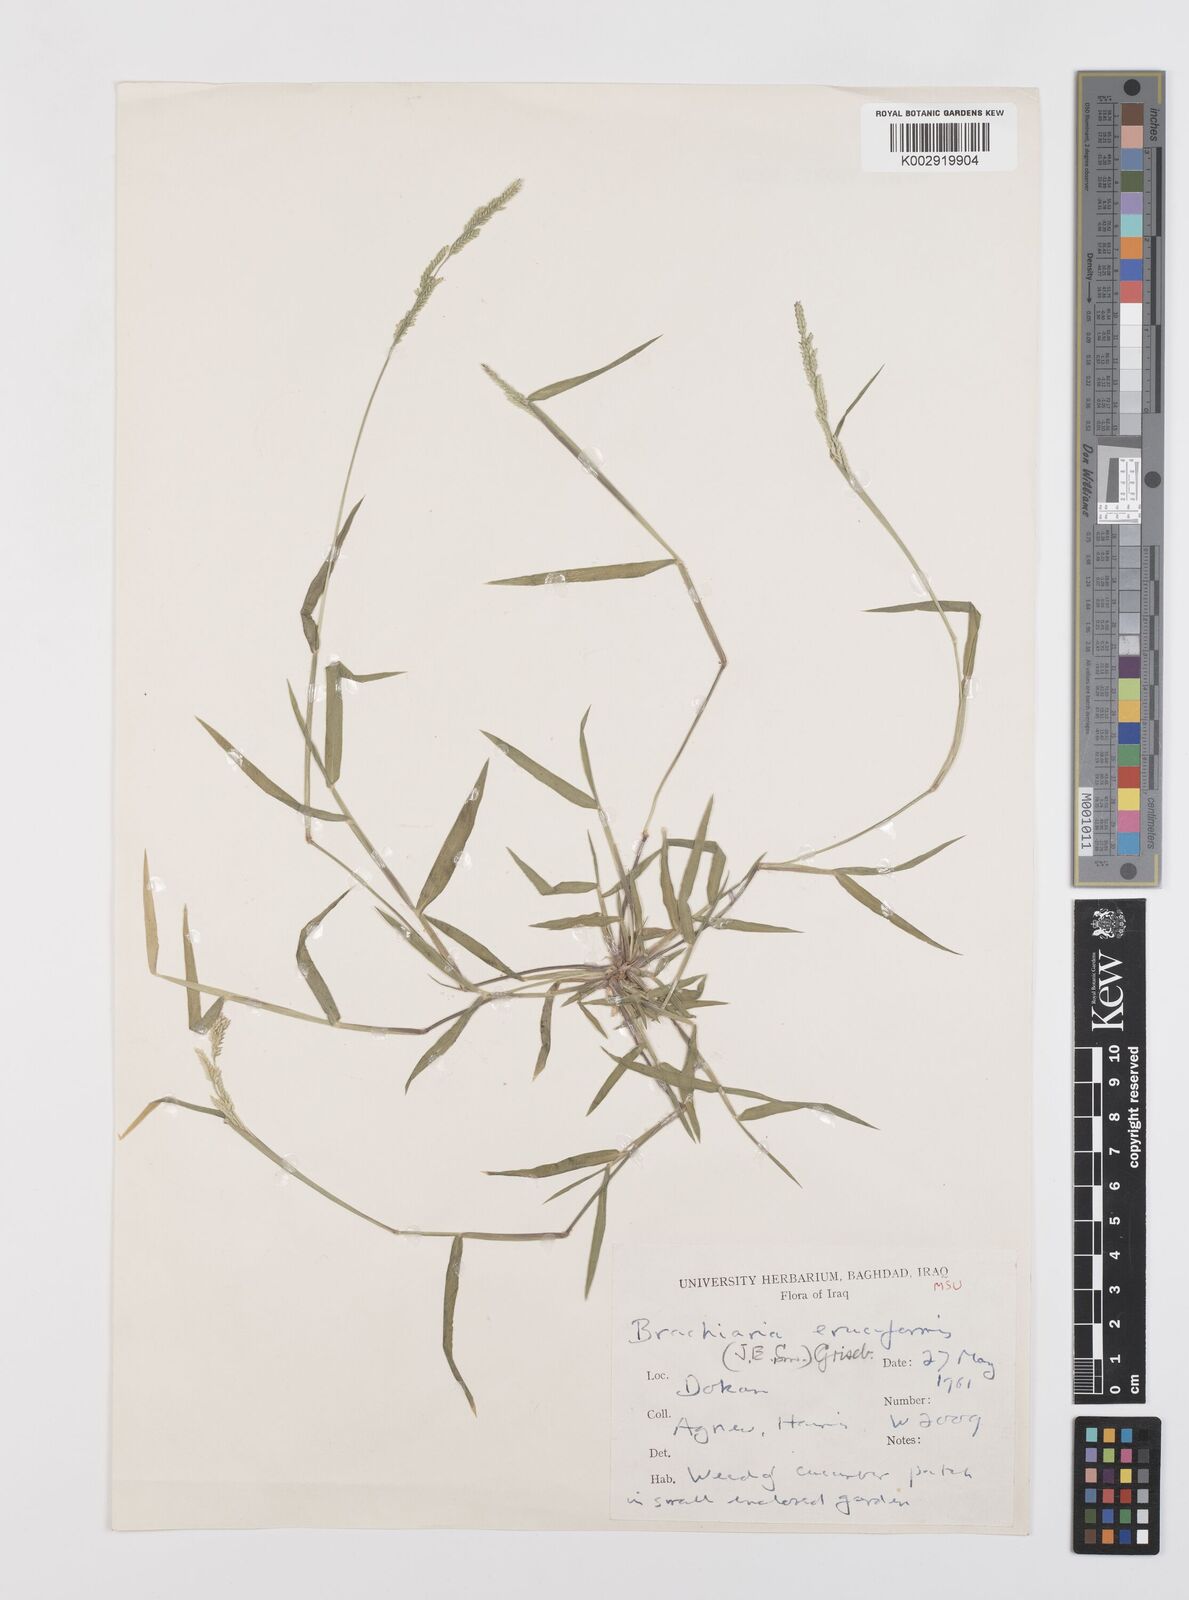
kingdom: Plantae
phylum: Tracheophyta
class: Liliopsida
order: Poales
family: Poaceae
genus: Moorochloa
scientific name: Moorochloa eruciformis
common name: Sweet signalgrass
